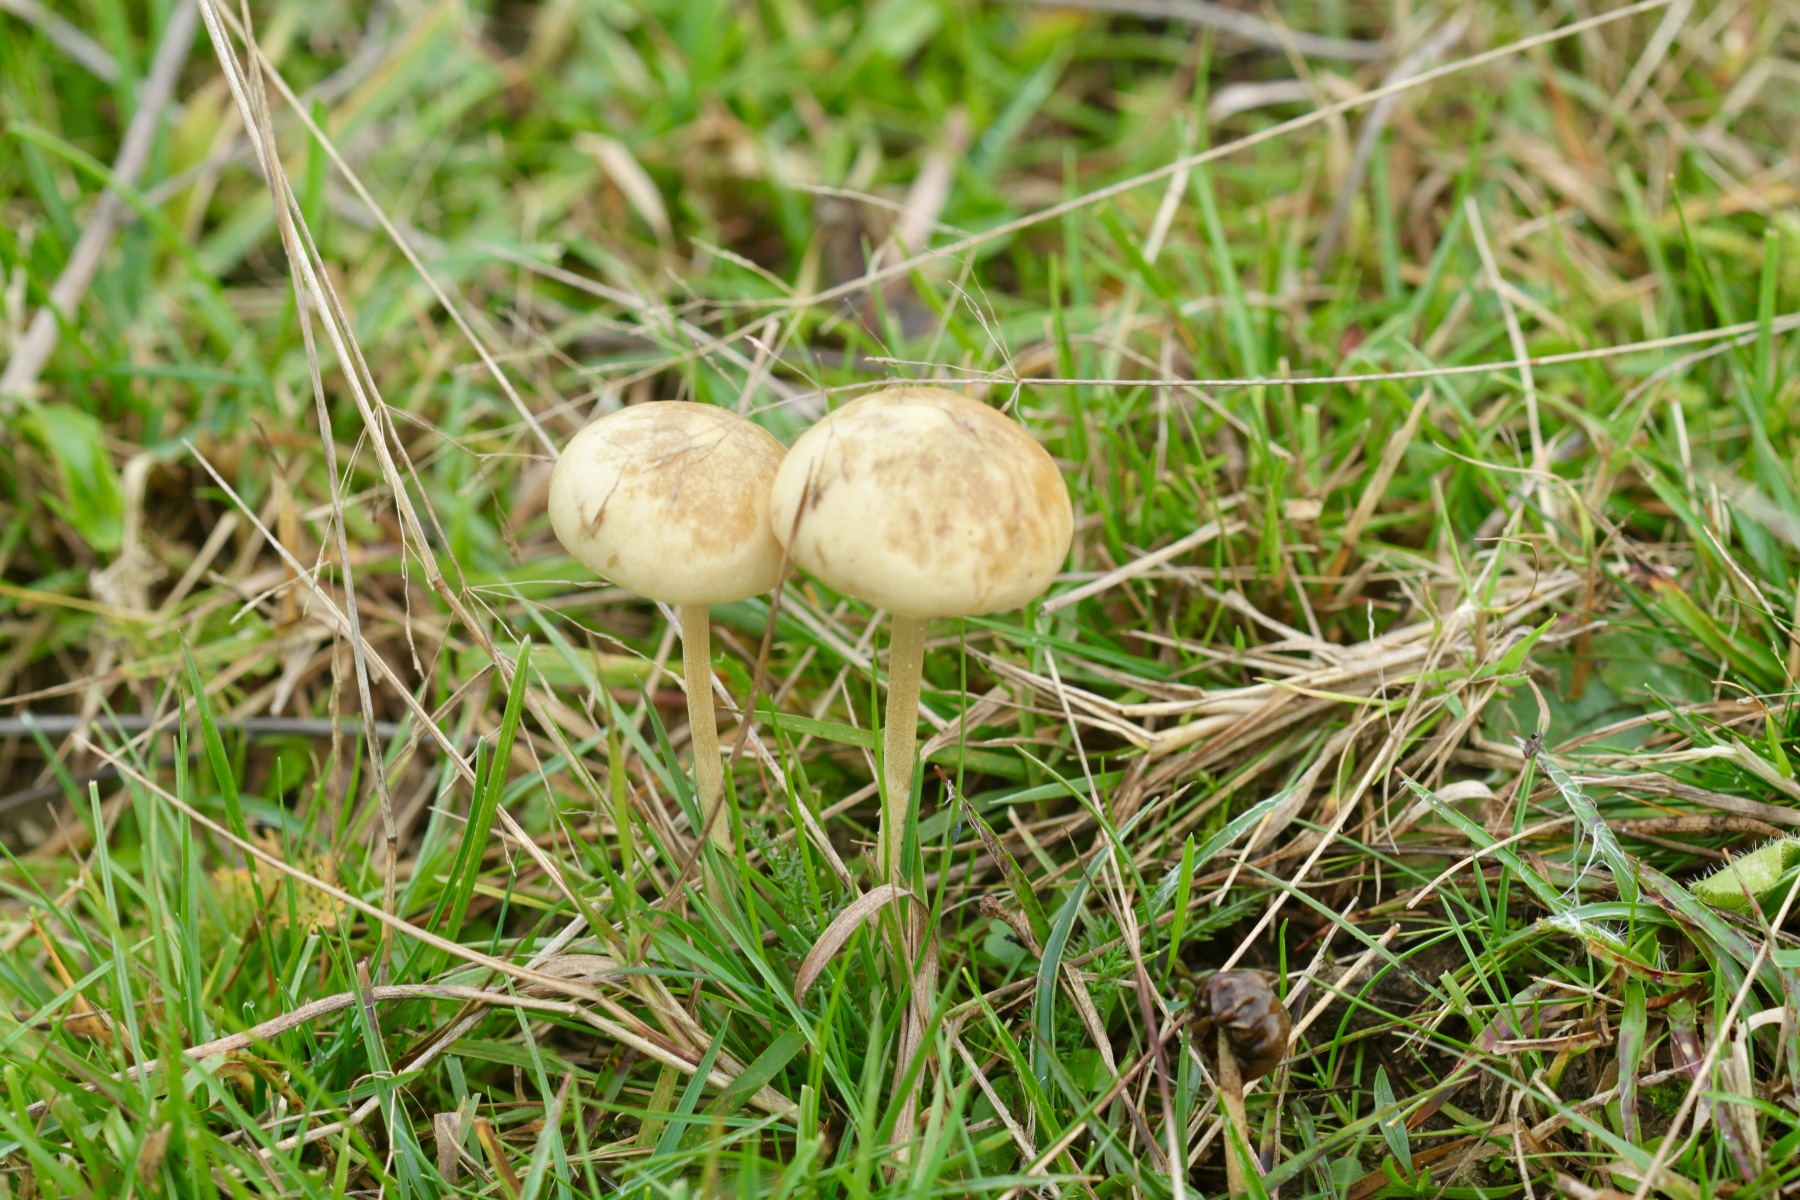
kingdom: Fungi
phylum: Basidiomycota
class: Agaricomycetes
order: Agaricales
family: Strophariaceae
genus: Protostropharia
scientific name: Protostropharia semiglobata
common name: halvkugleformet bredblad
